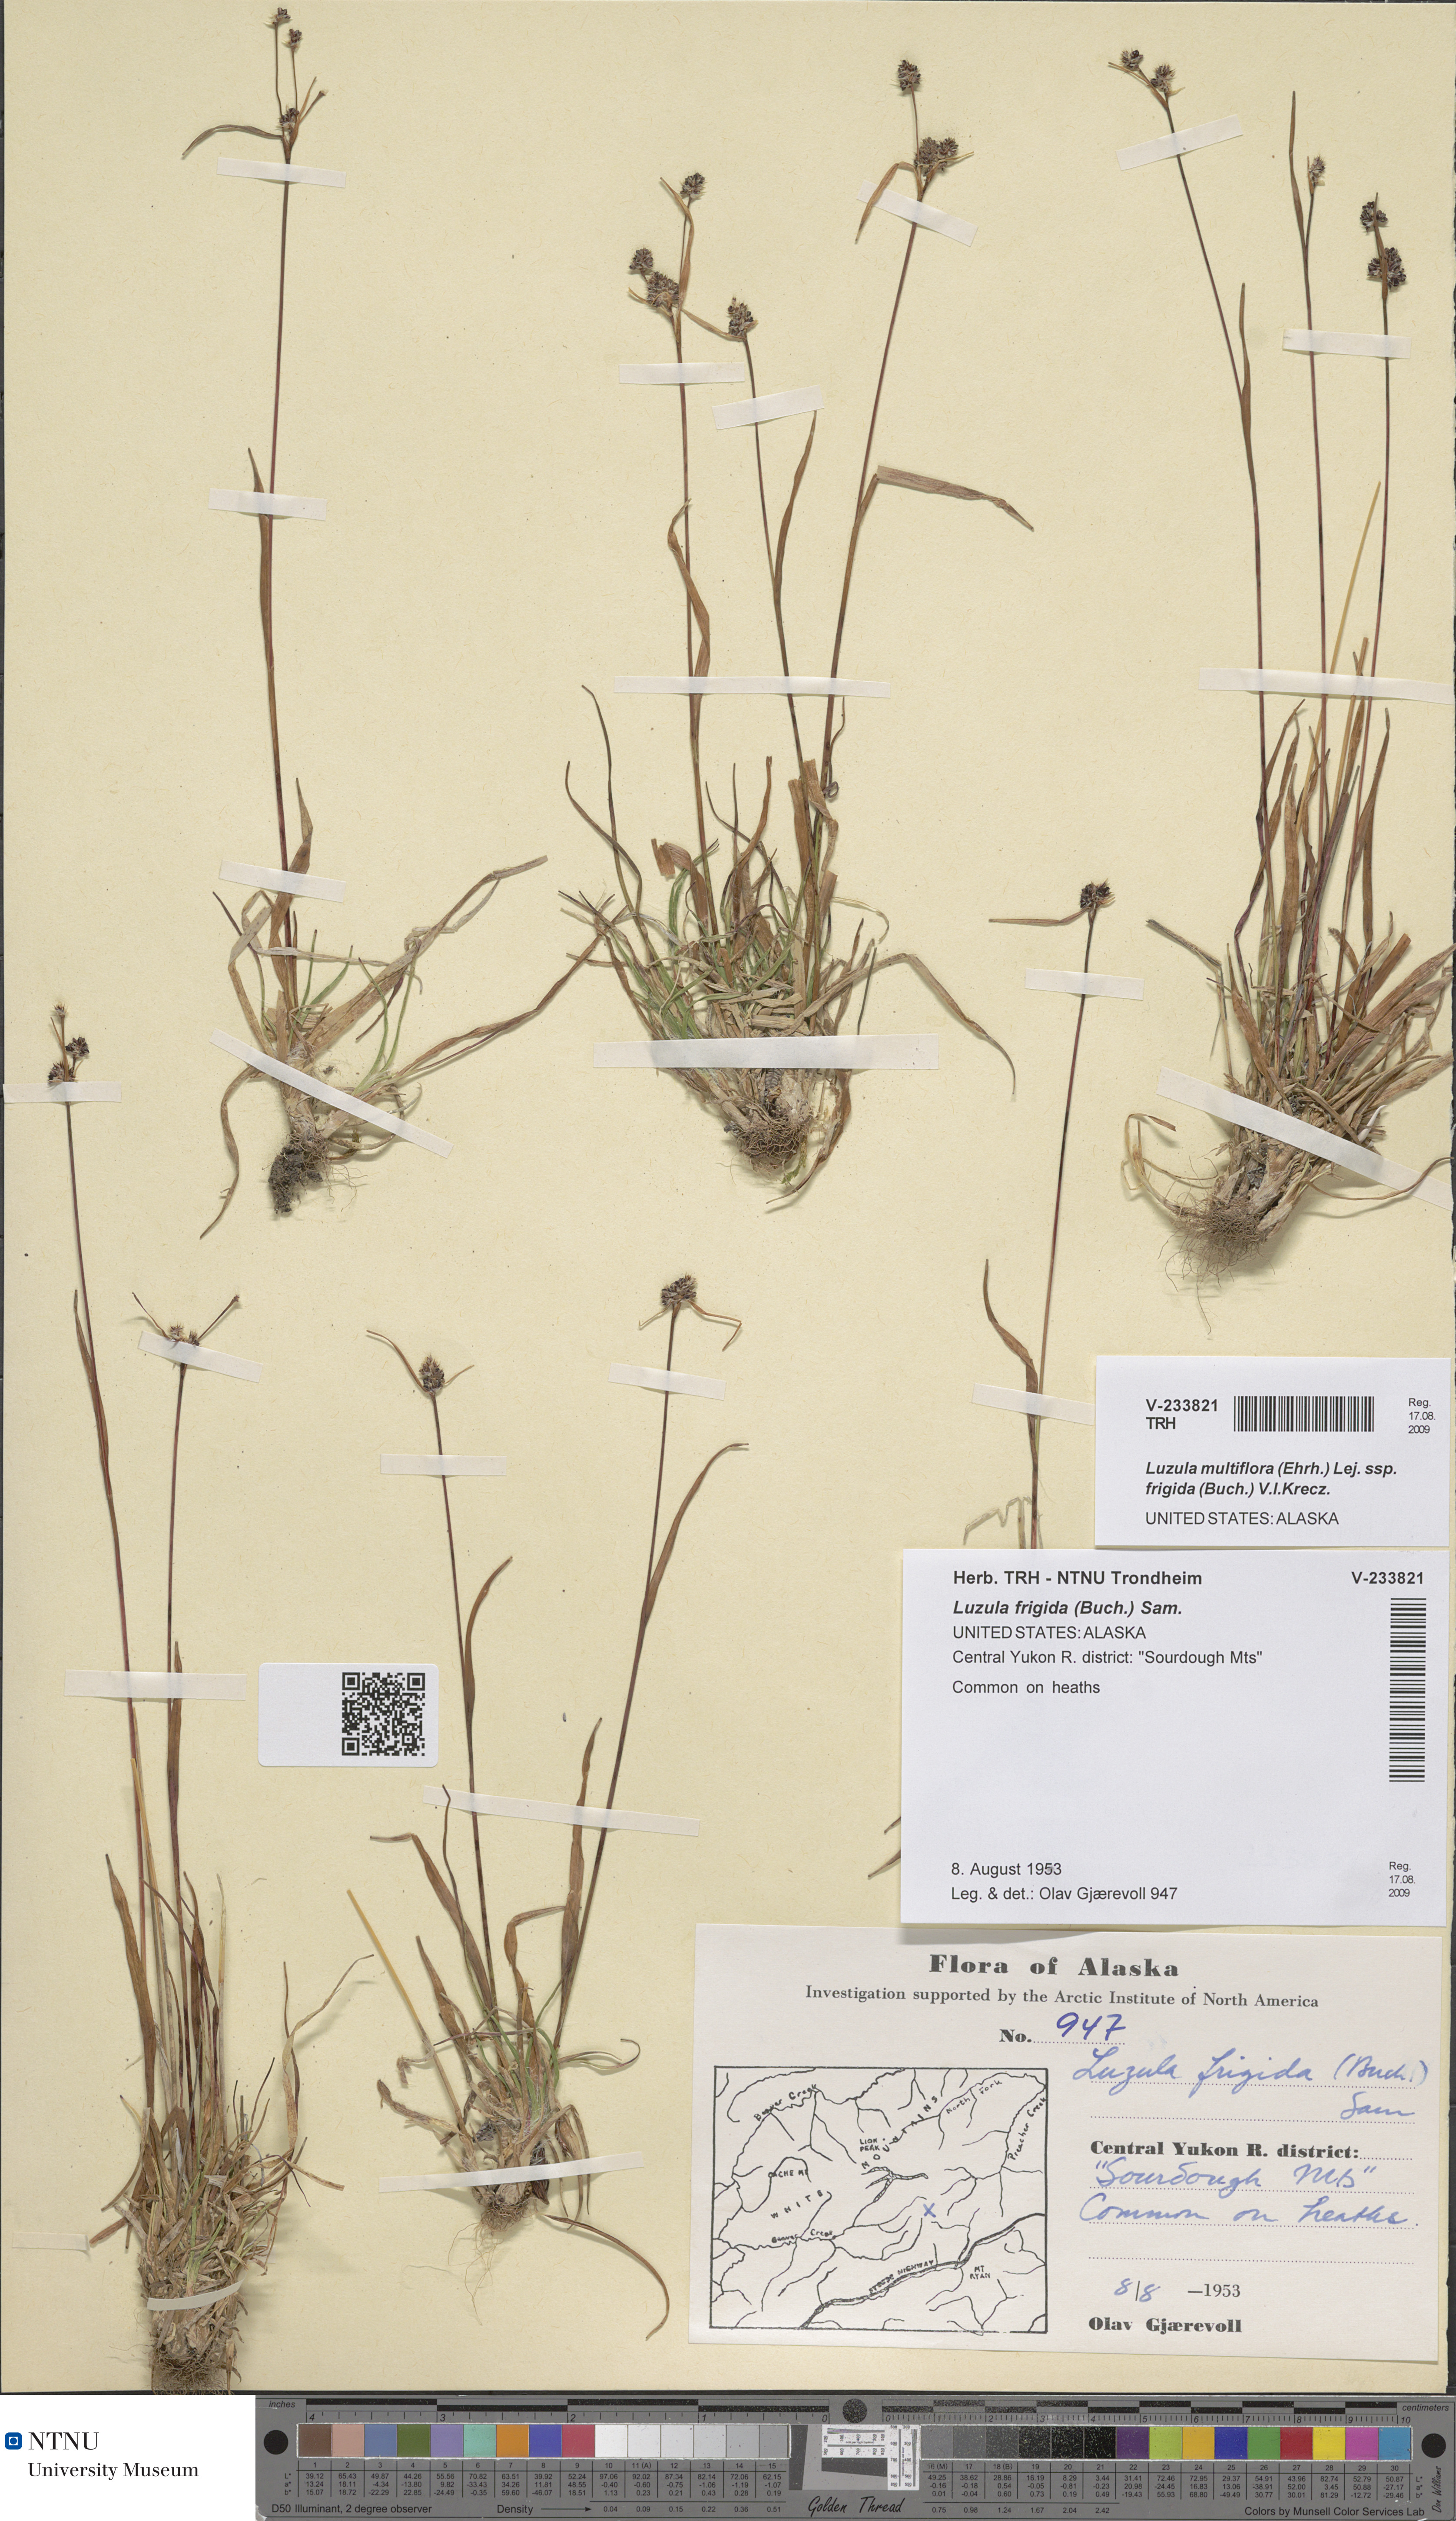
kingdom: Plantae
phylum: Tracheophyta
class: Liliopsida
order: Poales
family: Juncaceae
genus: Luzula
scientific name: Luzula multiflora
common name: Heath wood-rush
